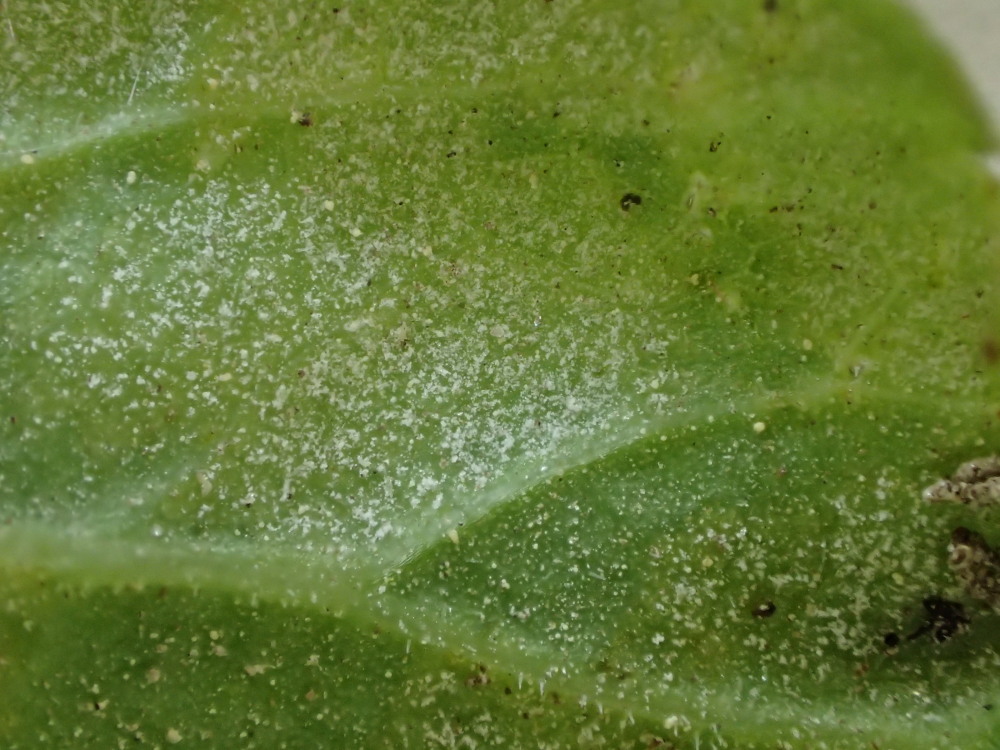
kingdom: Chromista
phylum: Oomycota
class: Peronosporea
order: Peronosporales
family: Peronosporaceae
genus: Peronospora
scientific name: Peronospora crustosa
